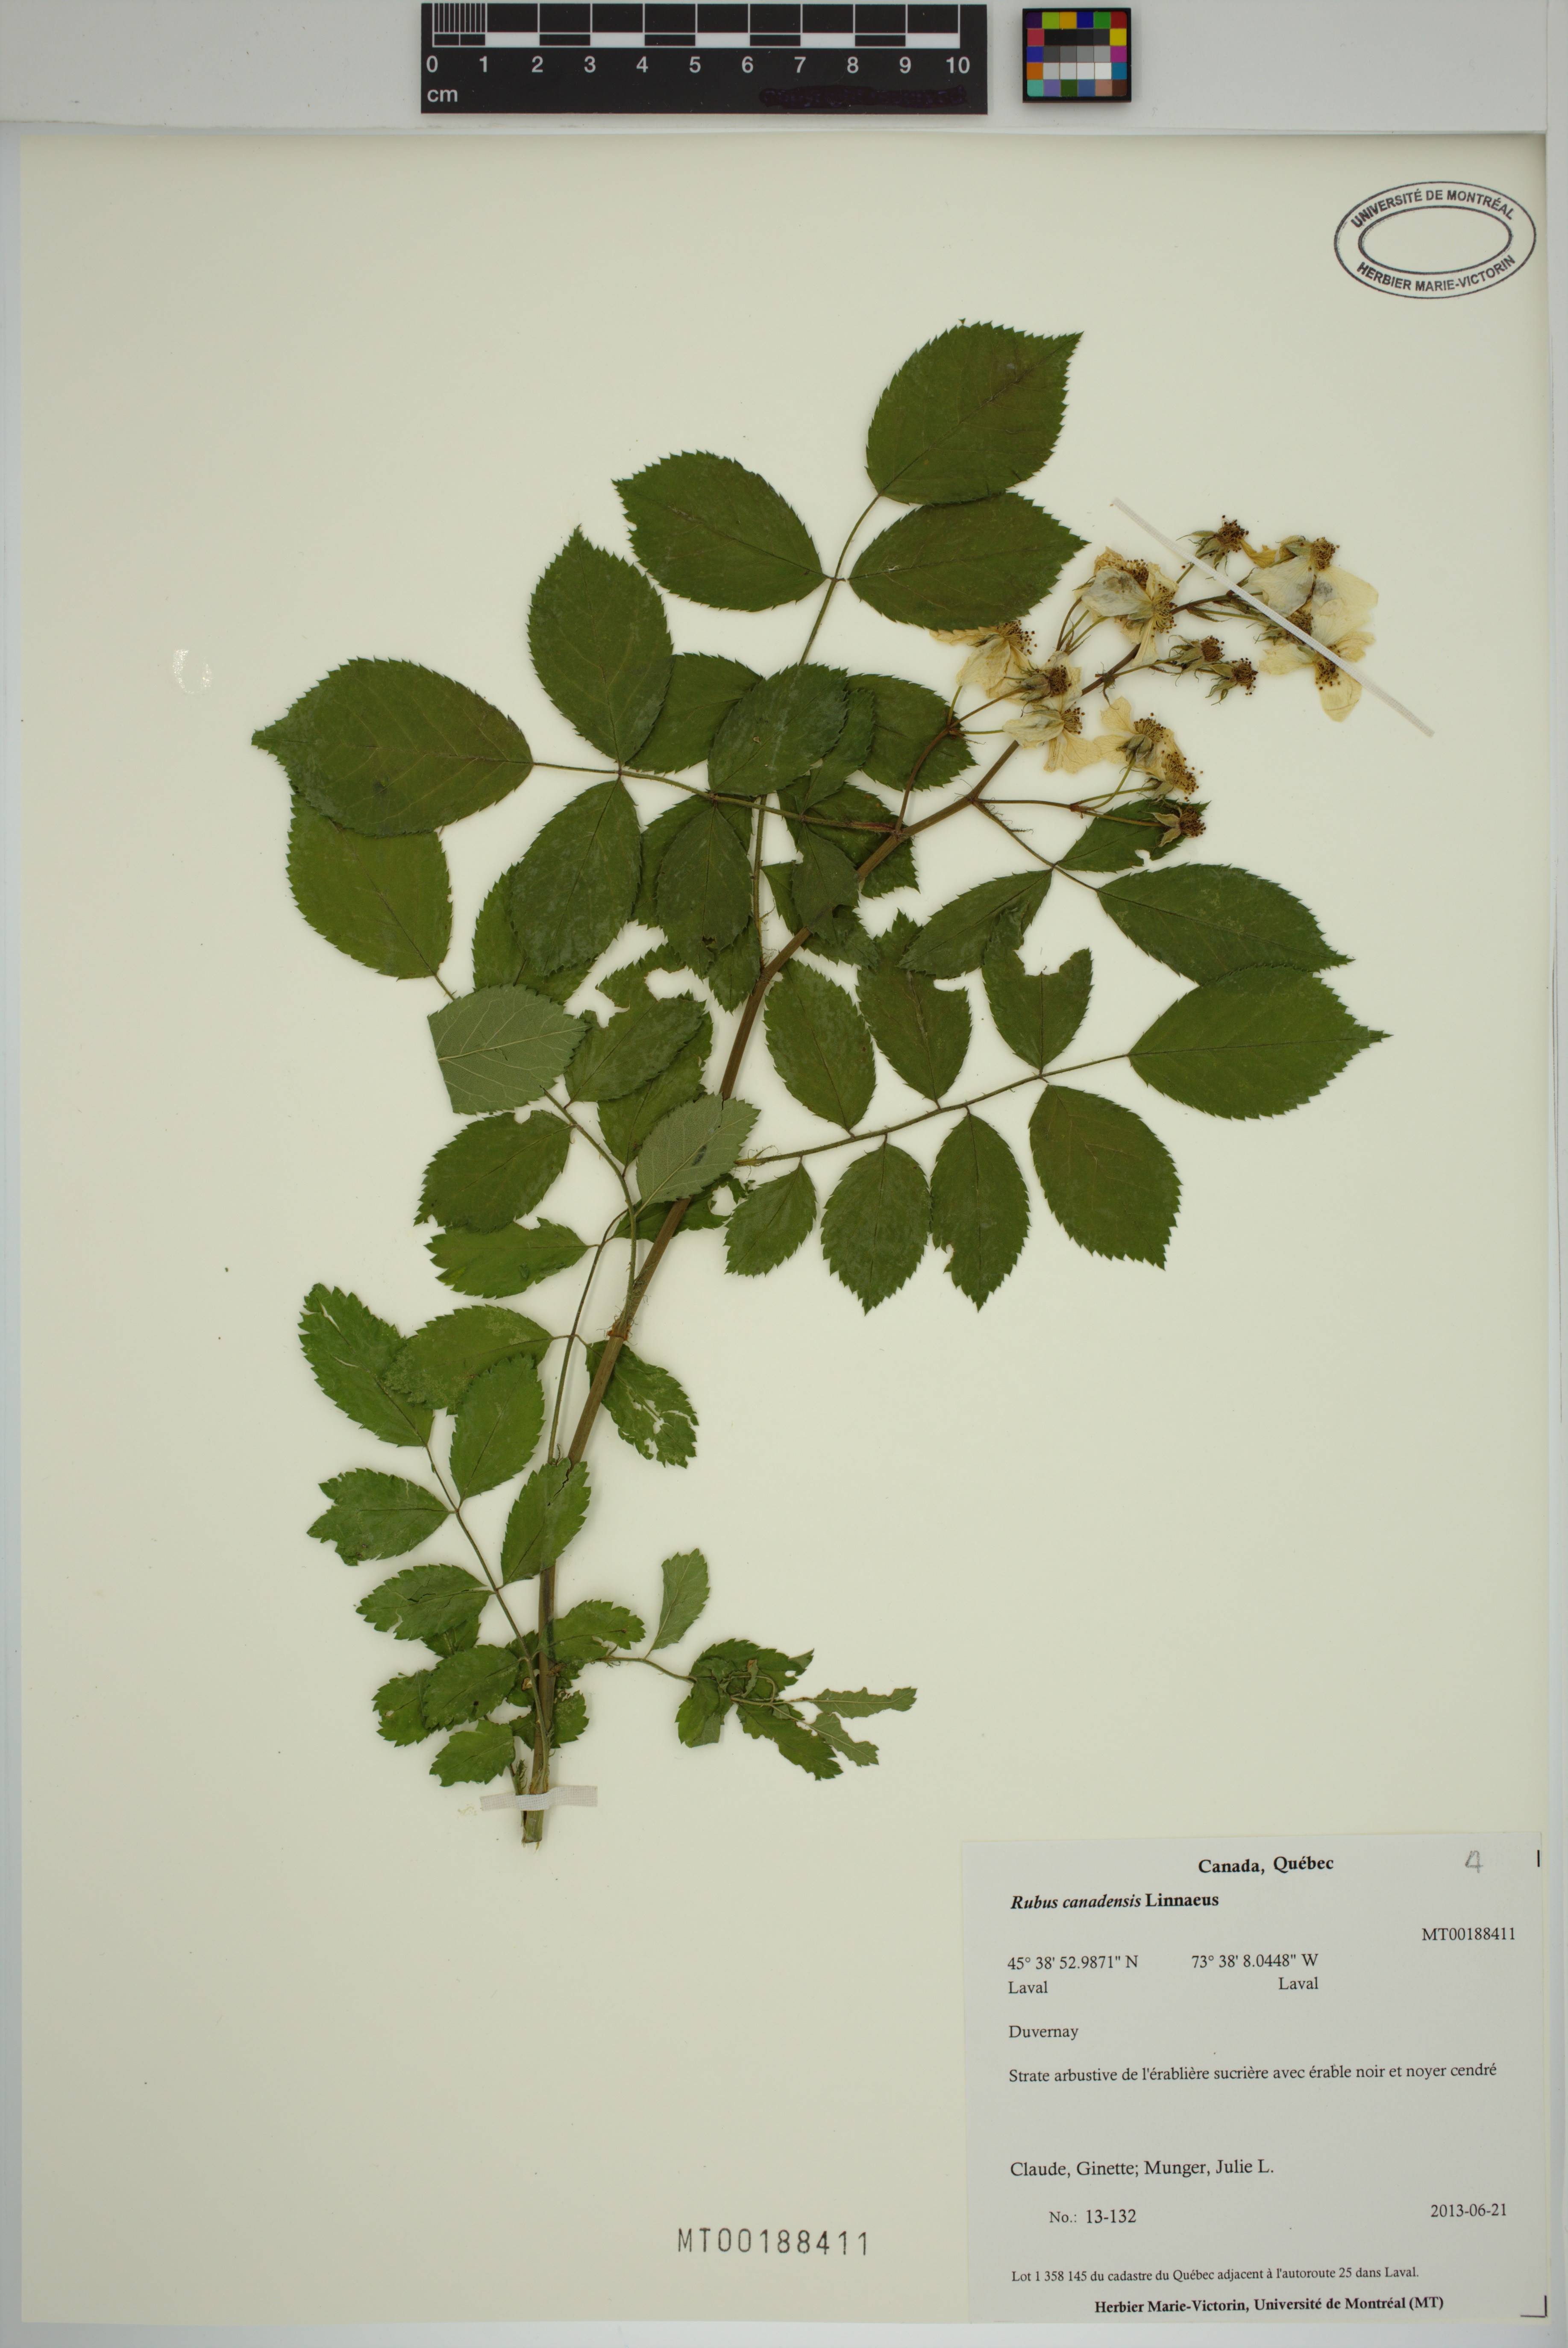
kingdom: Plantae
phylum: Tracheophyta
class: Magnoliopsida
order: Rosales
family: Rosaceae
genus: Rubus
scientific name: Rubus canadensis
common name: Smooth blackberry
